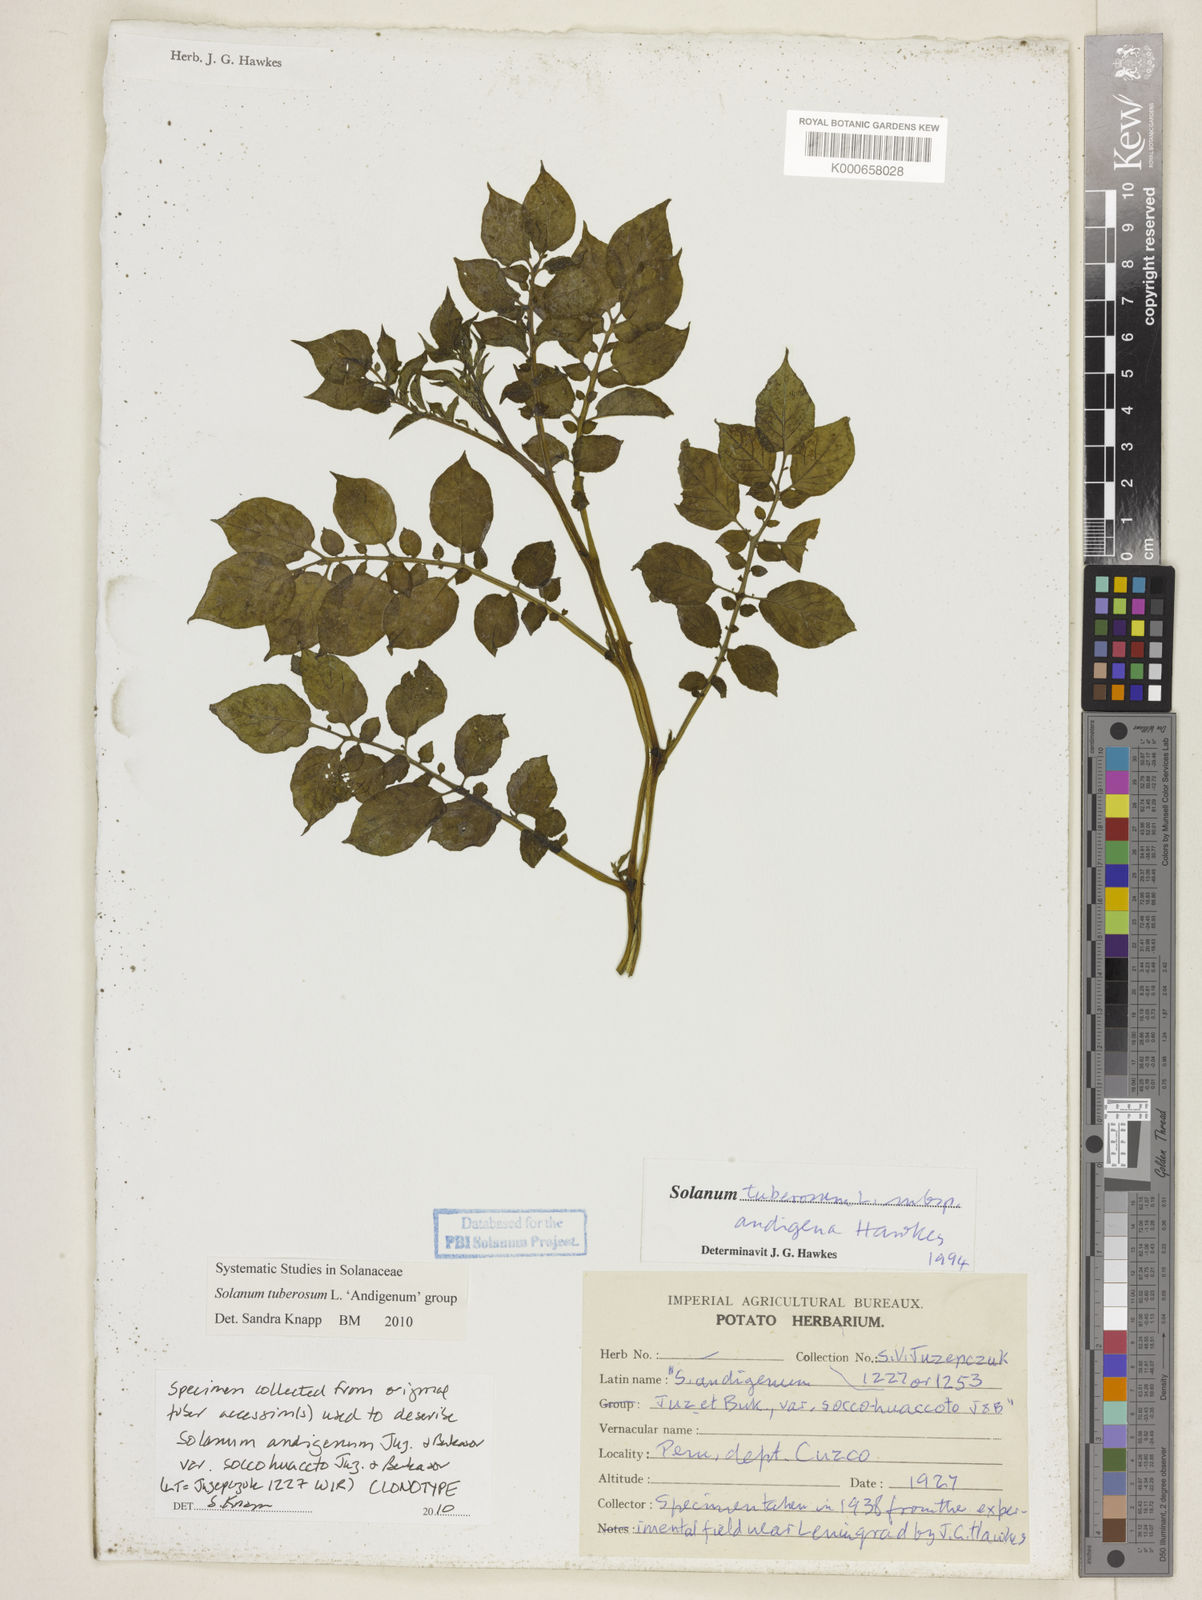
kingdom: Plantae
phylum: Tracheophyta
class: Magnoliopsida
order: Solanales
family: Solanaceae
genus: Solanum
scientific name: Solanum tuberosum
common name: Potato
